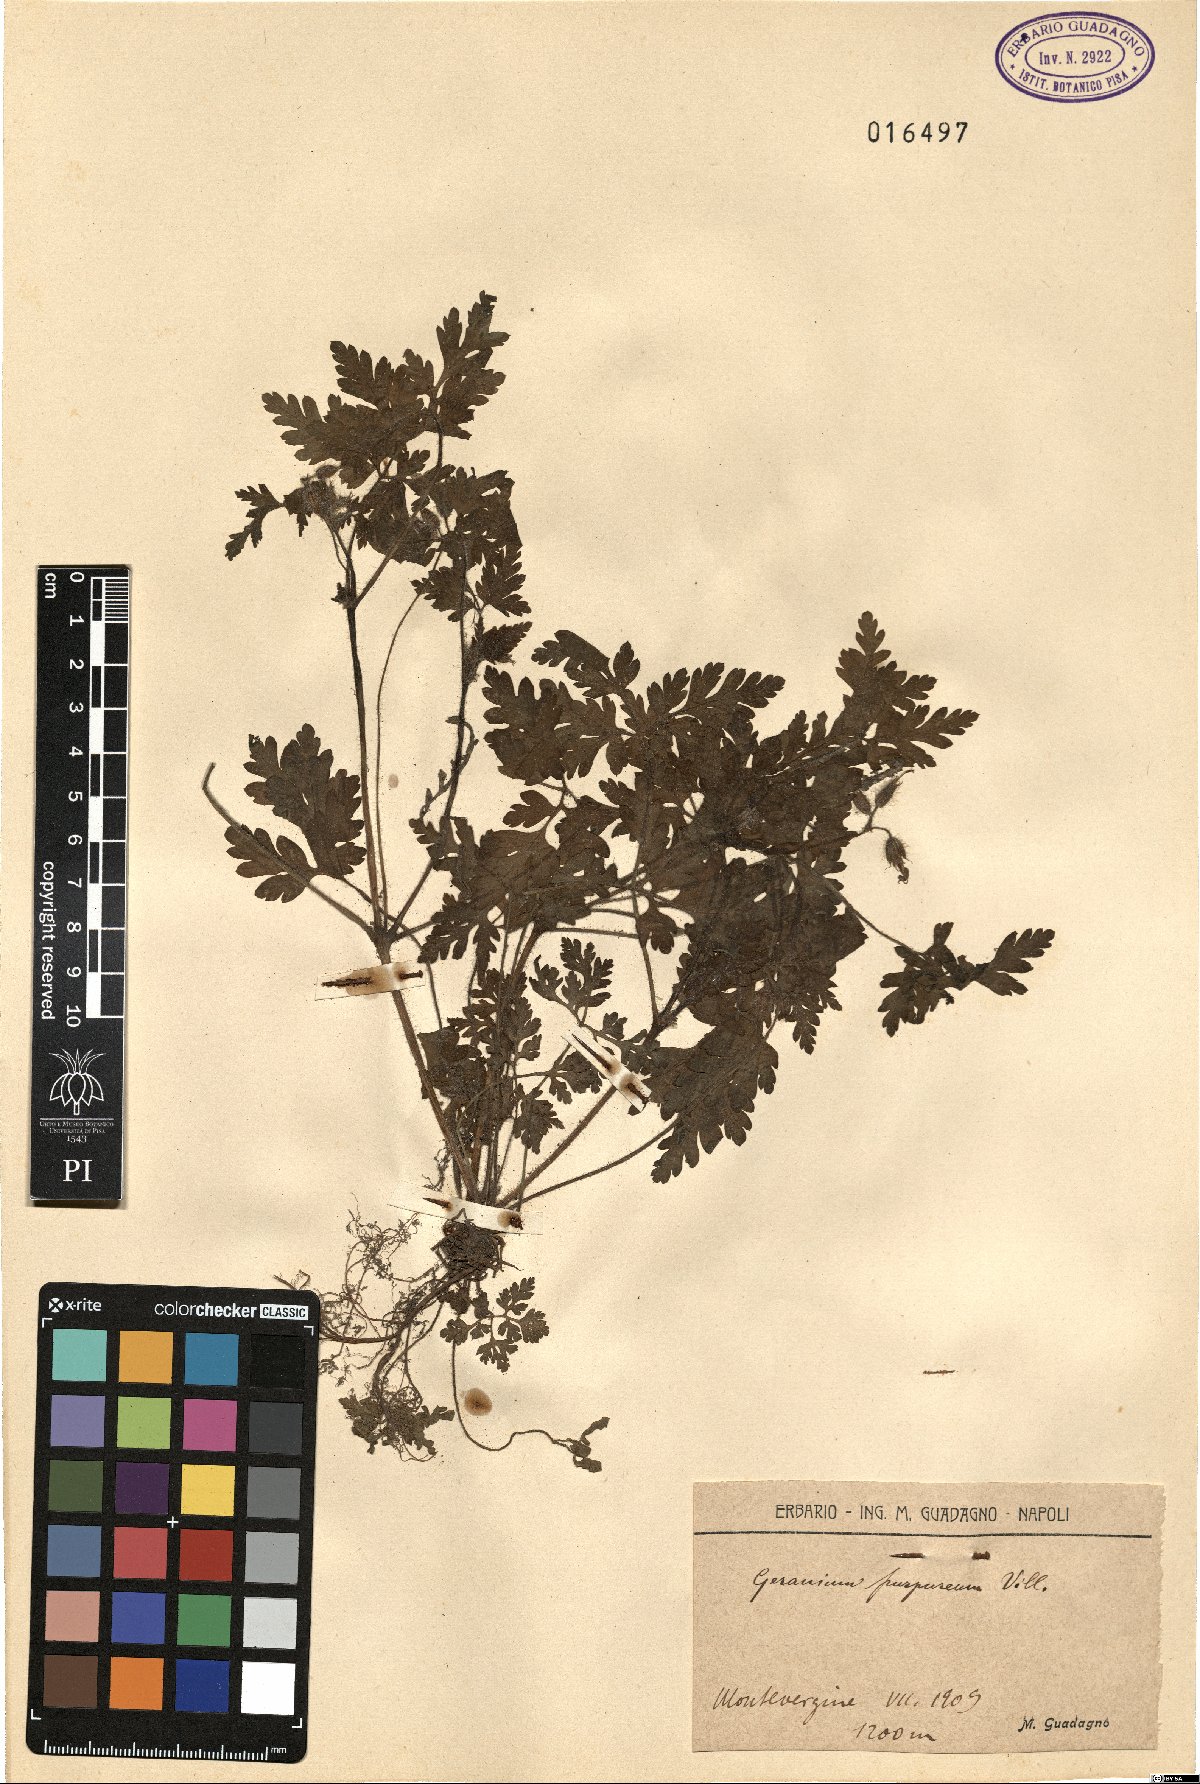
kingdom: Plantae
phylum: Tracheophyta
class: Magnoliopsida
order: Geraniales
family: Geraniaceae
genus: Geranium
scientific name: Geranium purpureum
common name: Little-robin
